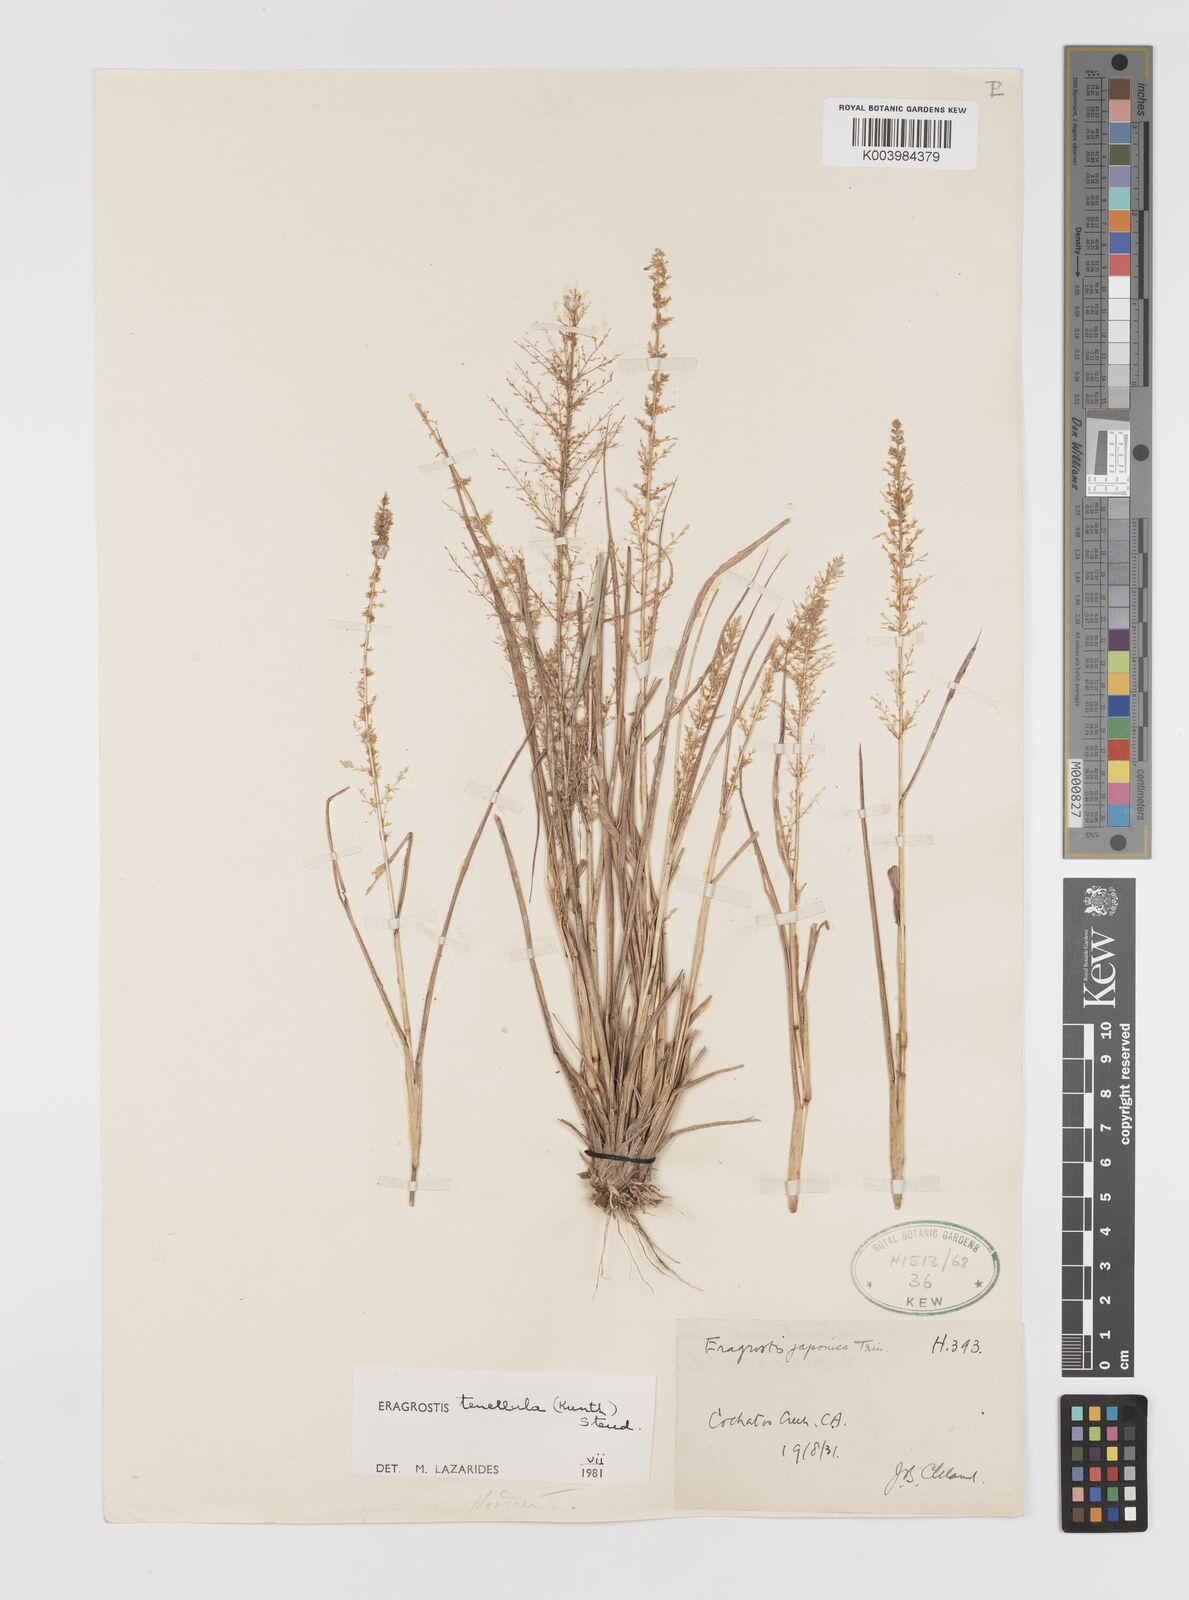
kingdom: Plantae
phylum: Tracheophyta
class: Liliopsida
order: Poales
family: Poaceae
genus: Eragrostis
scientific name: Eragrostis tenellula
